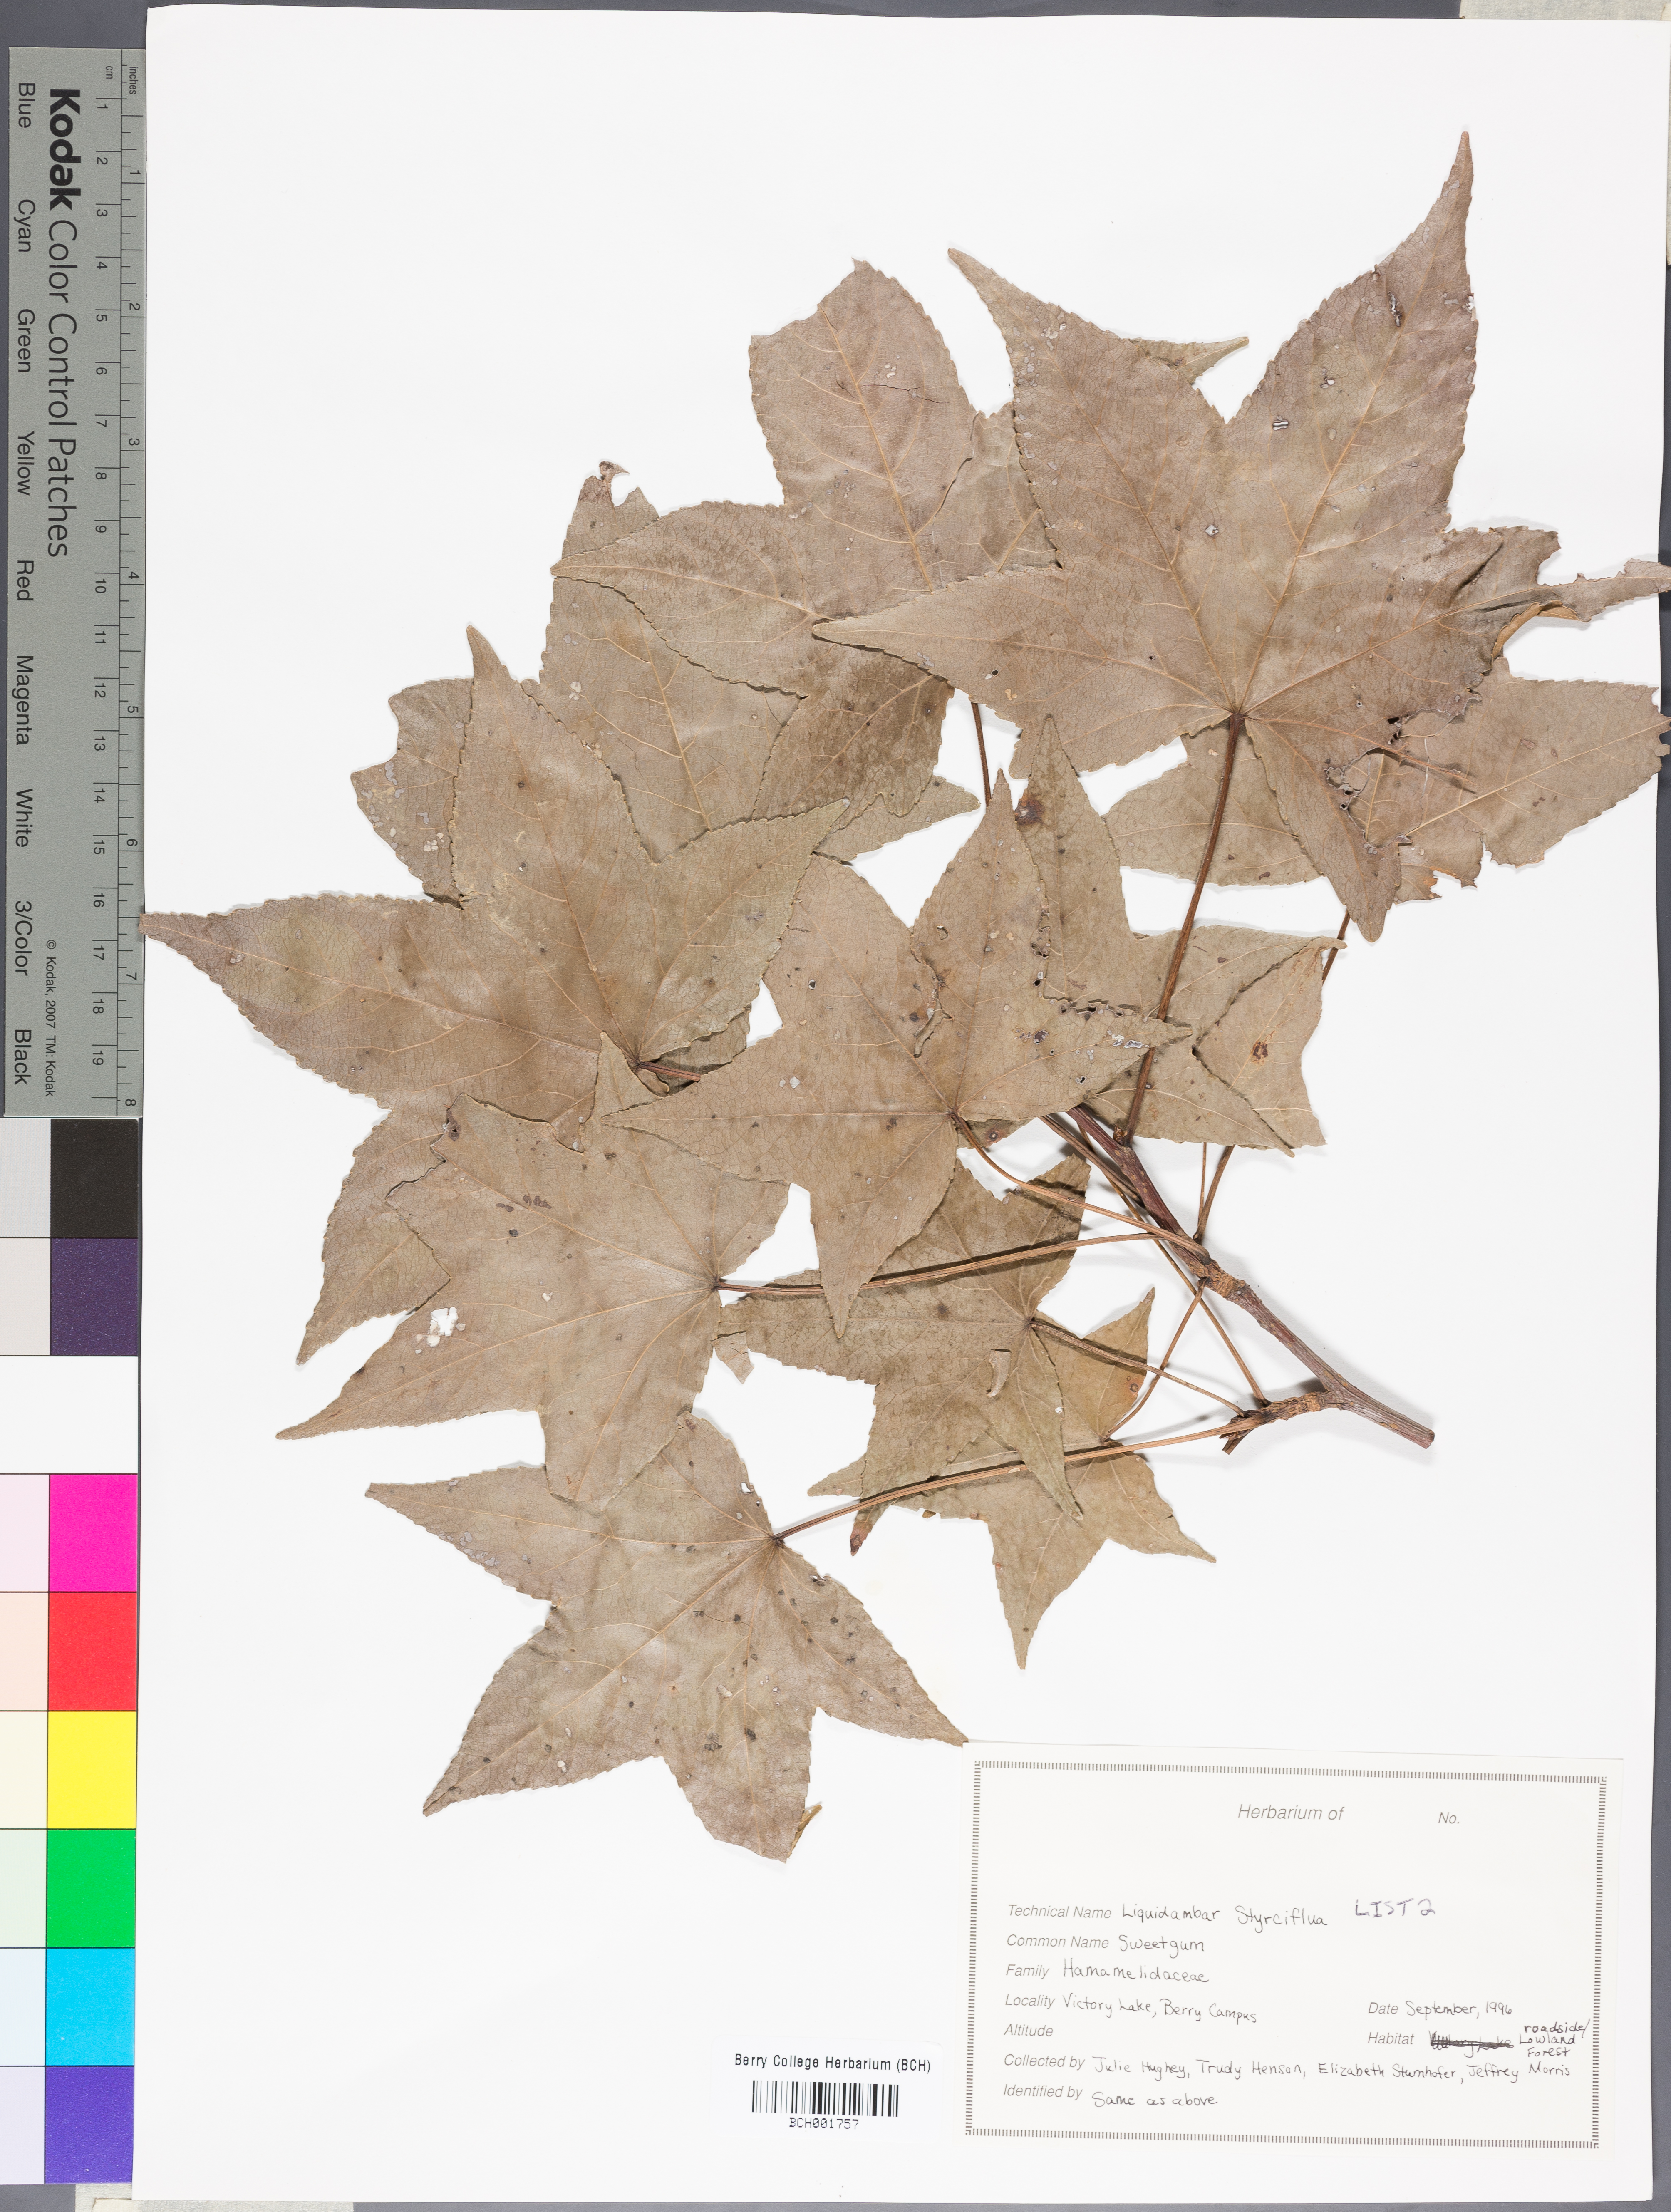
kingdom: Plantae
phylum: Tracheophyta
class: Magnoliopsida
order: Saxifragales
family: Altingiaceae
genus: Liquidambar
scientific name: Liquidambar styraciflua
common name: Sweet gum
